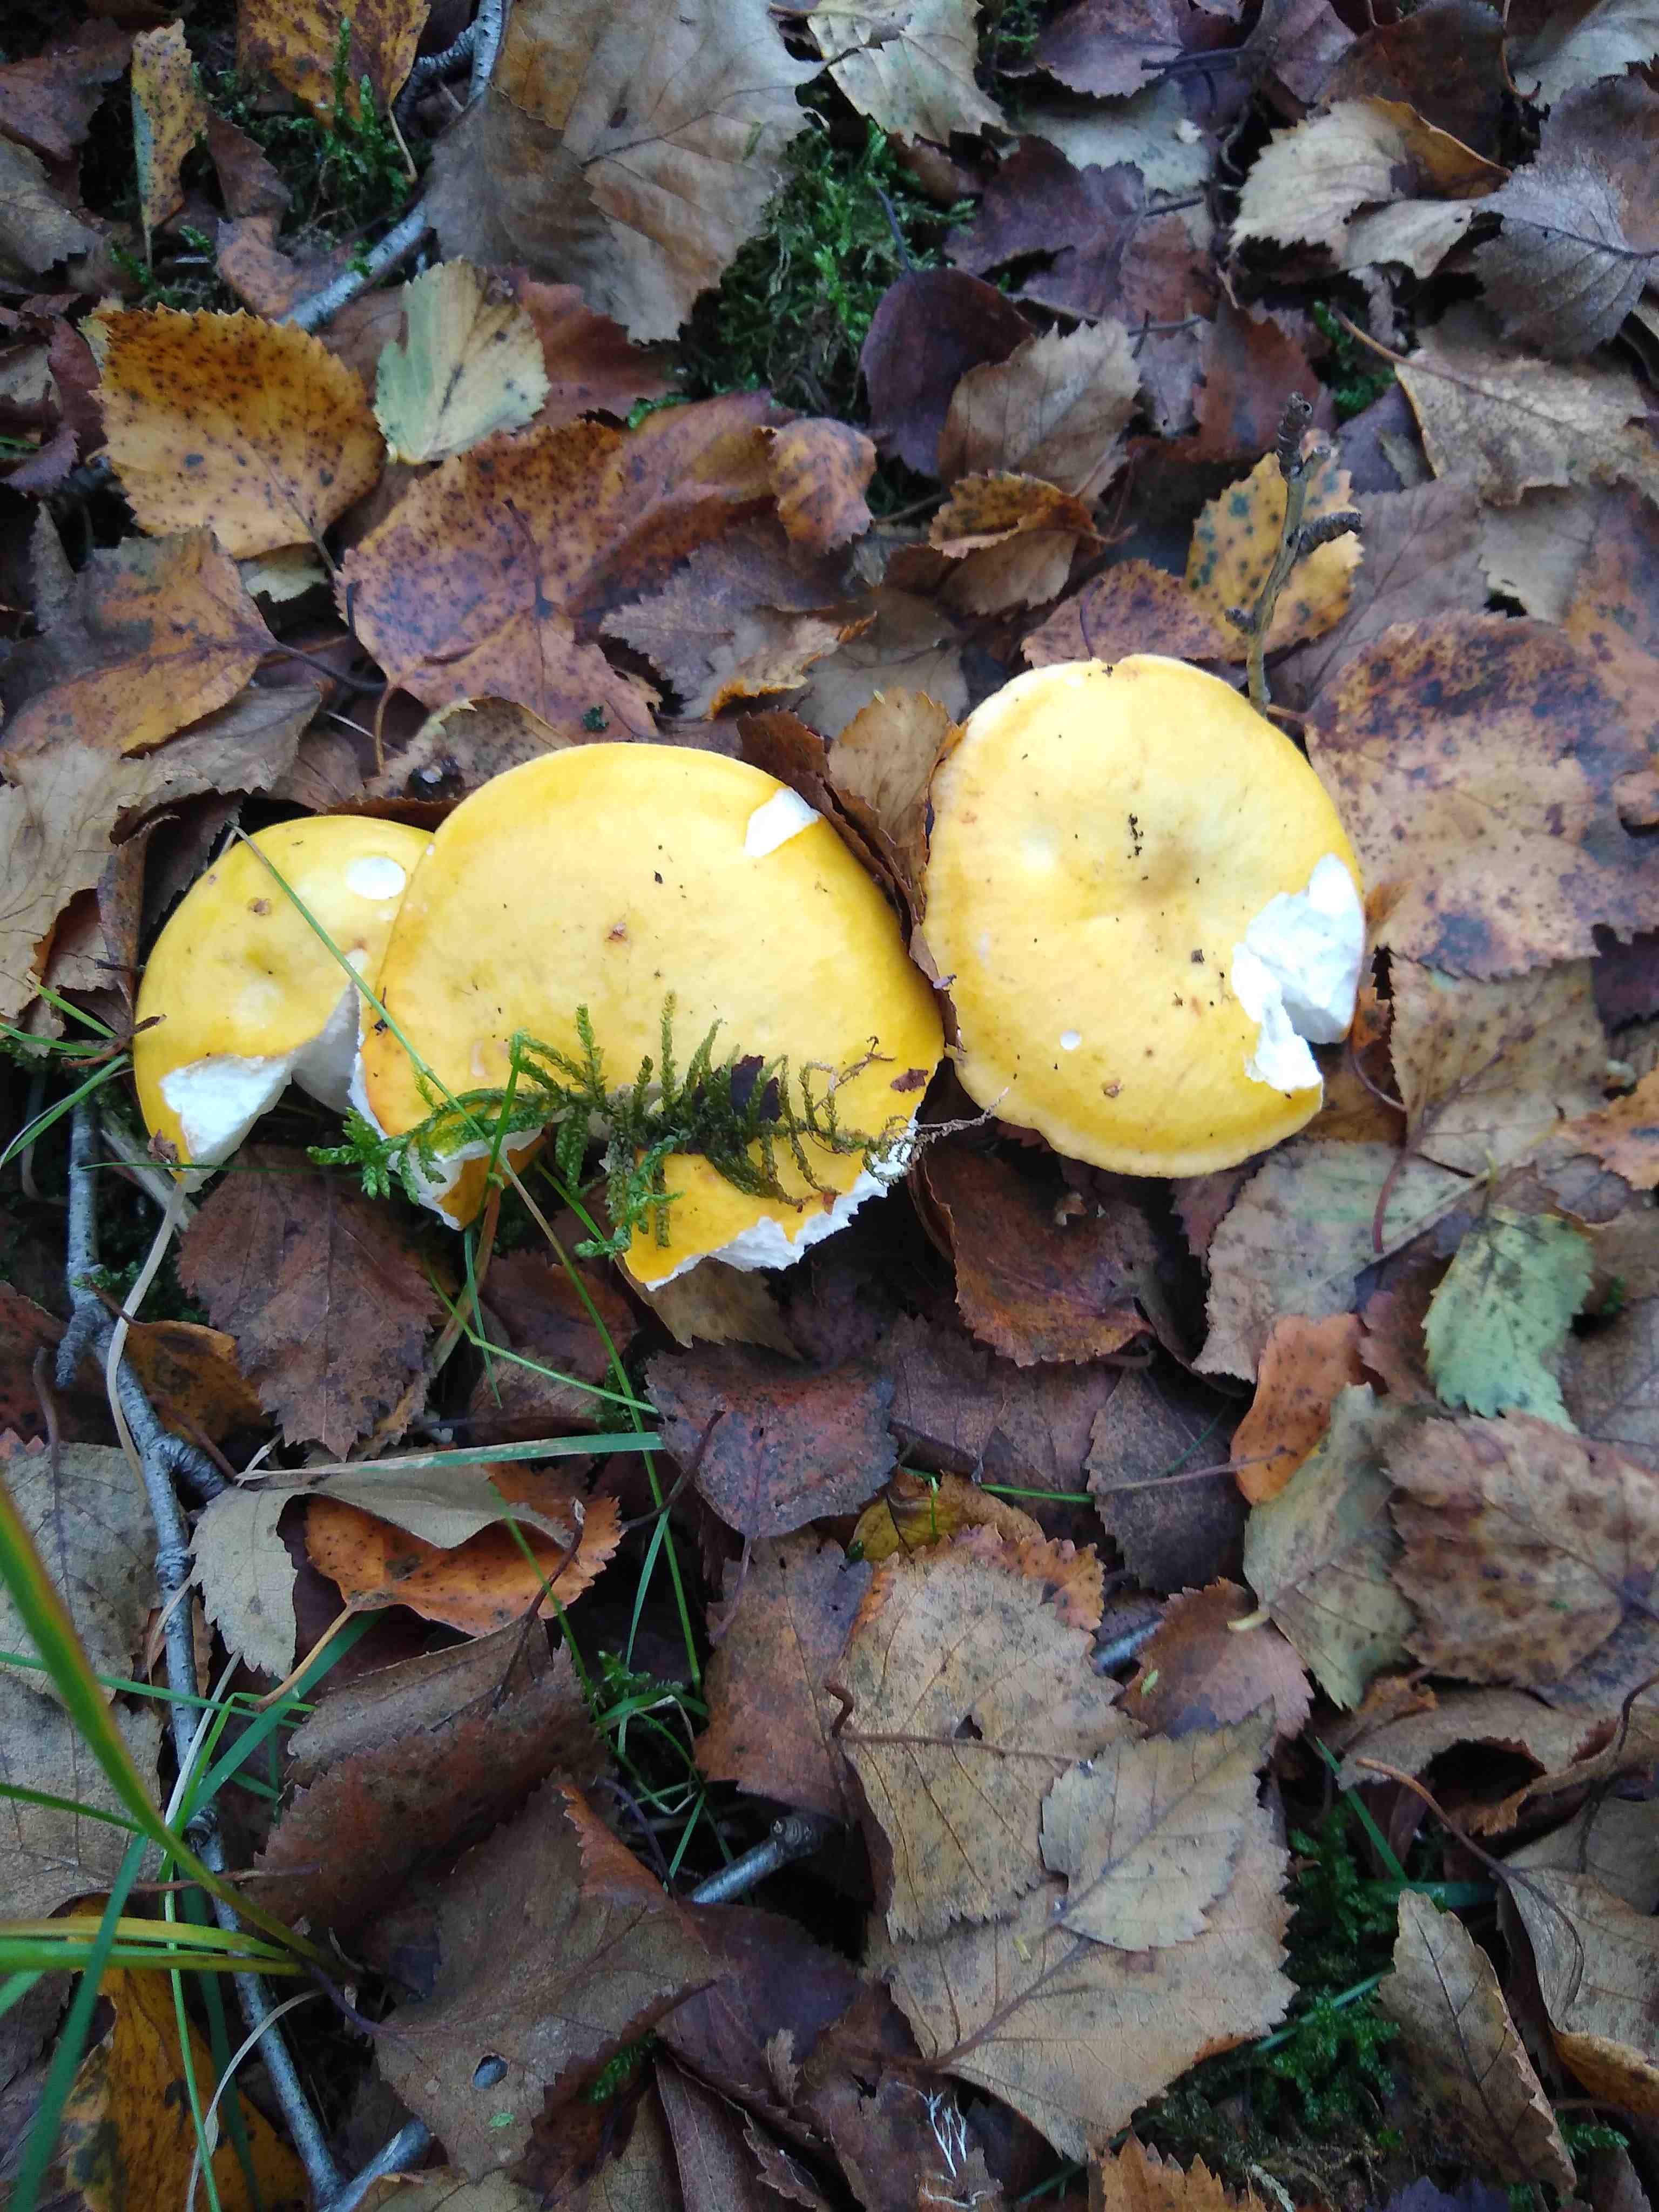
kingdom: Fungi
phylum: Basidiomycota
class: Agaricomycetes
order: Russulales
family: Russulaceae
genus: Russula
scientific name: Russula claroflava
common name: birke-skørhat
